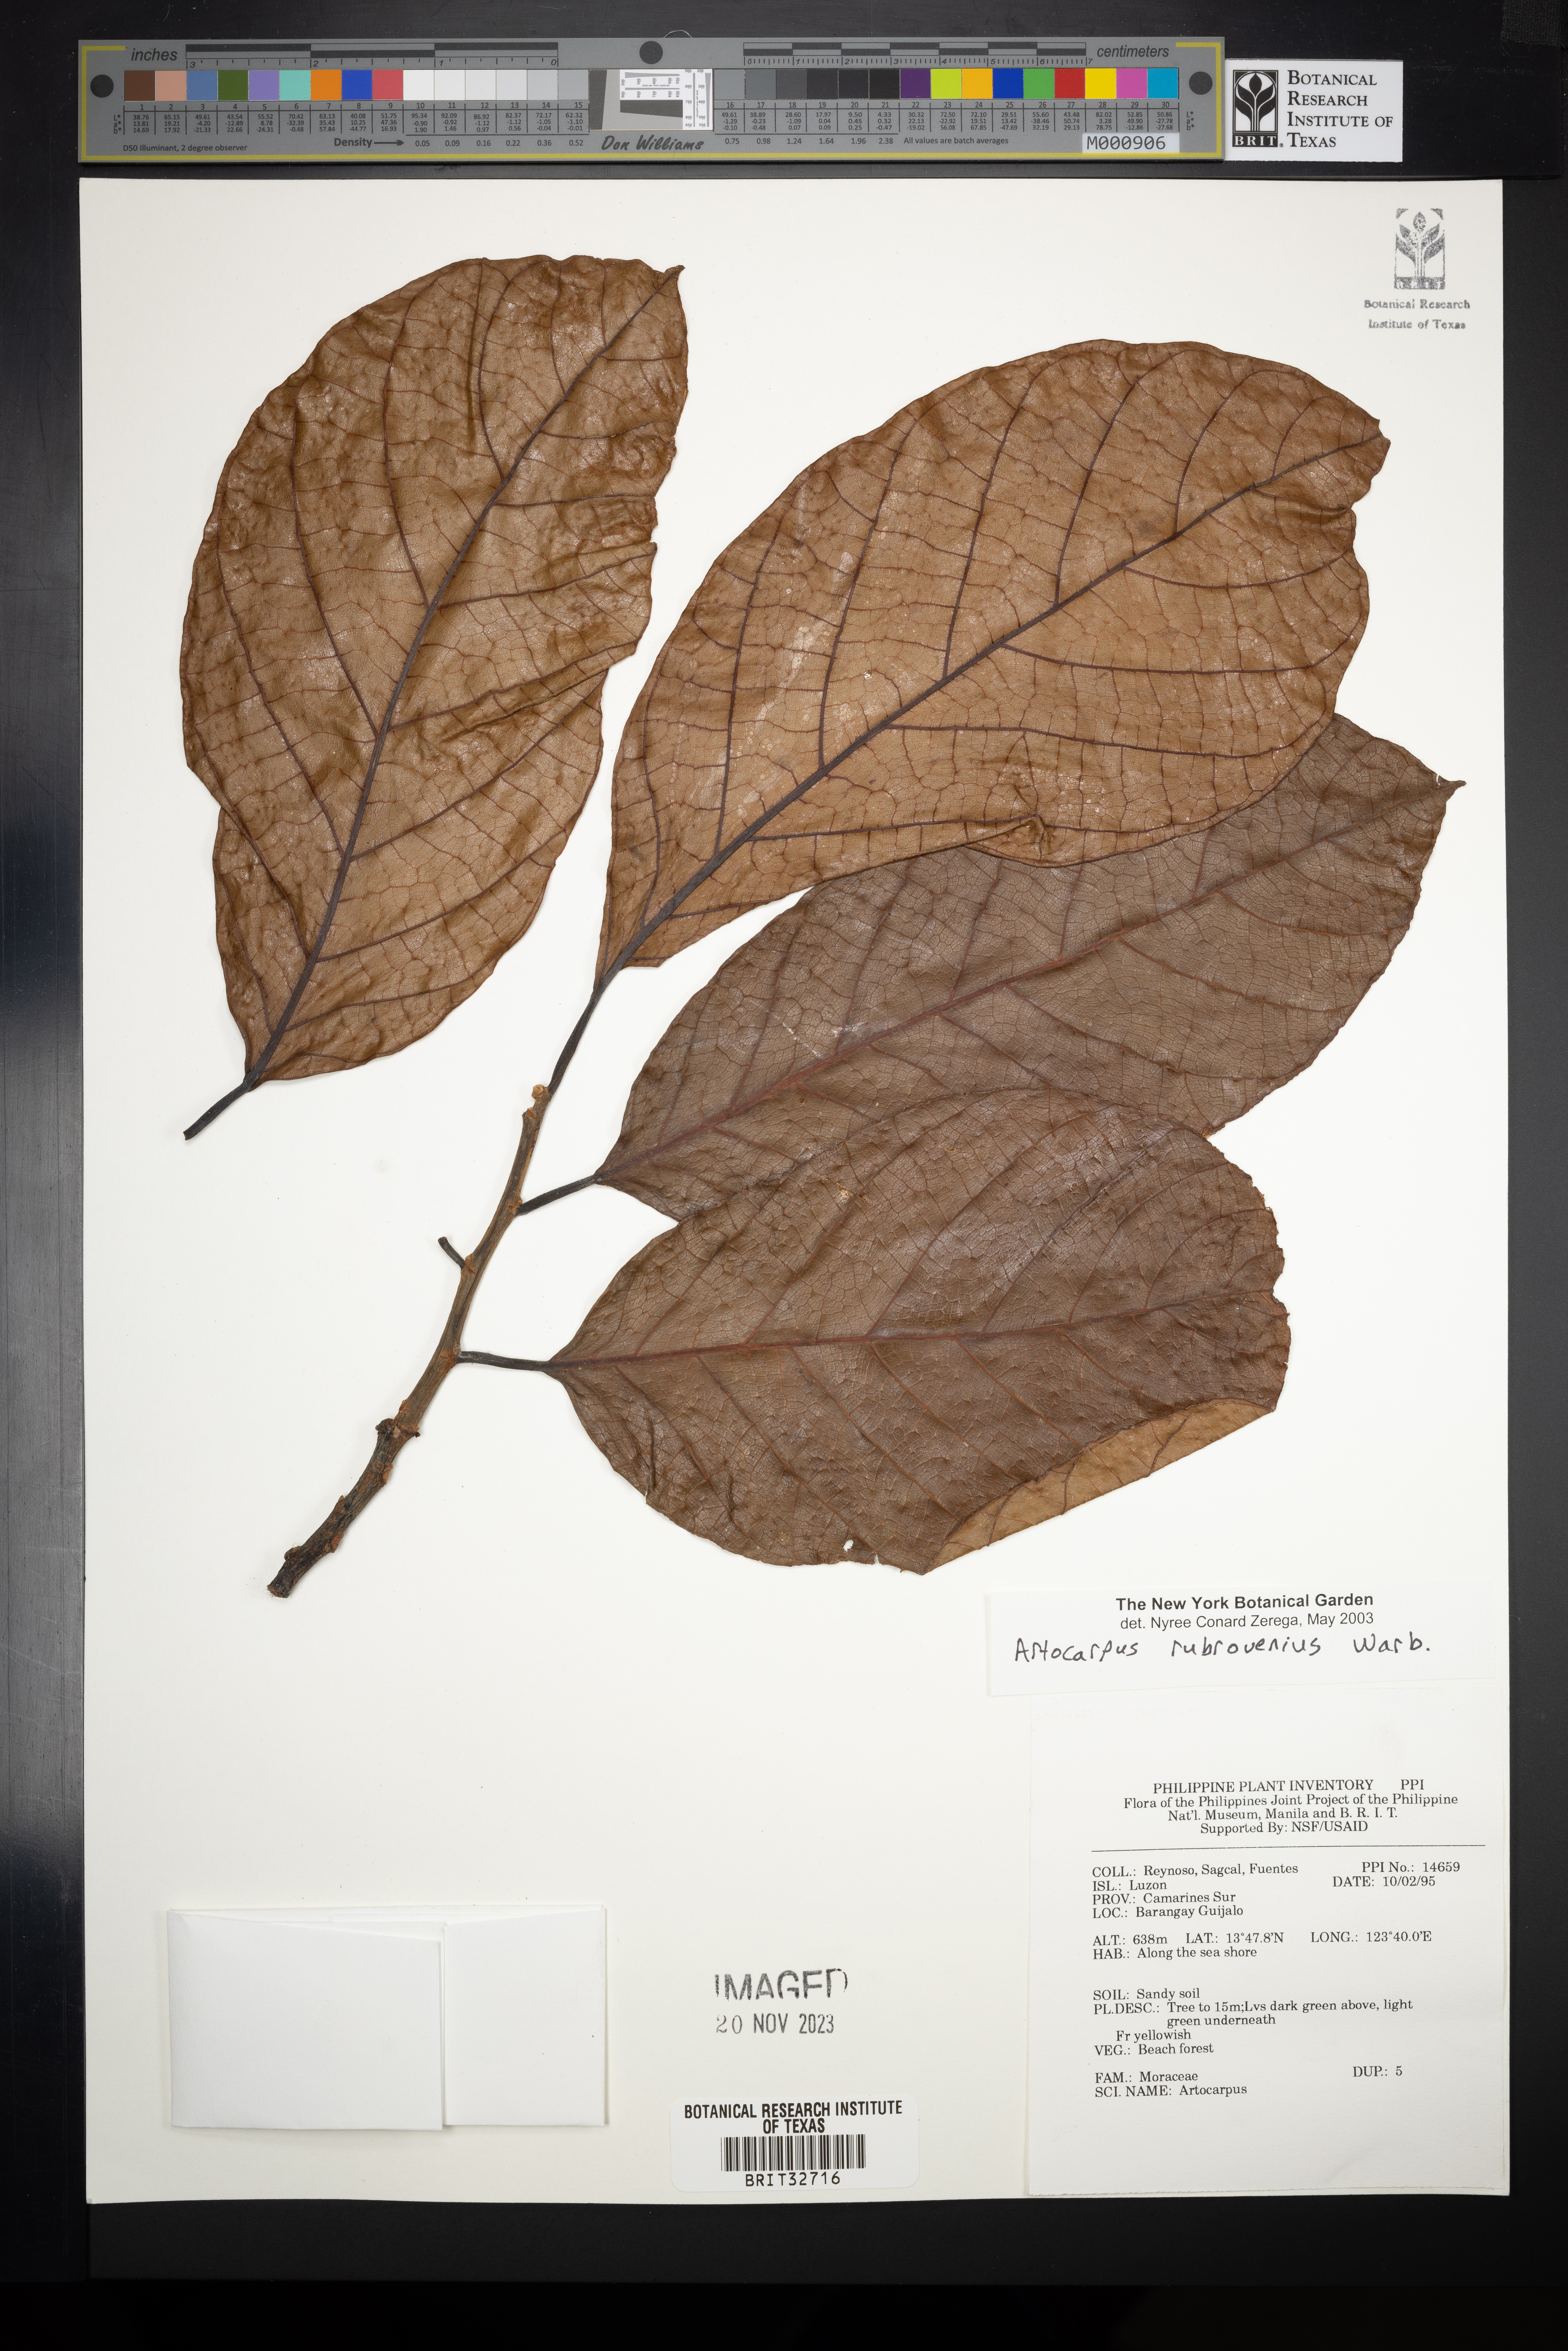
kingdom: Plantae
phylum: Tracheophyta
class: Magnoliopsida
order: Rosales
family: Moraceae
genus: Artocarpus
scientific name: Artocarpus rubrovenius
